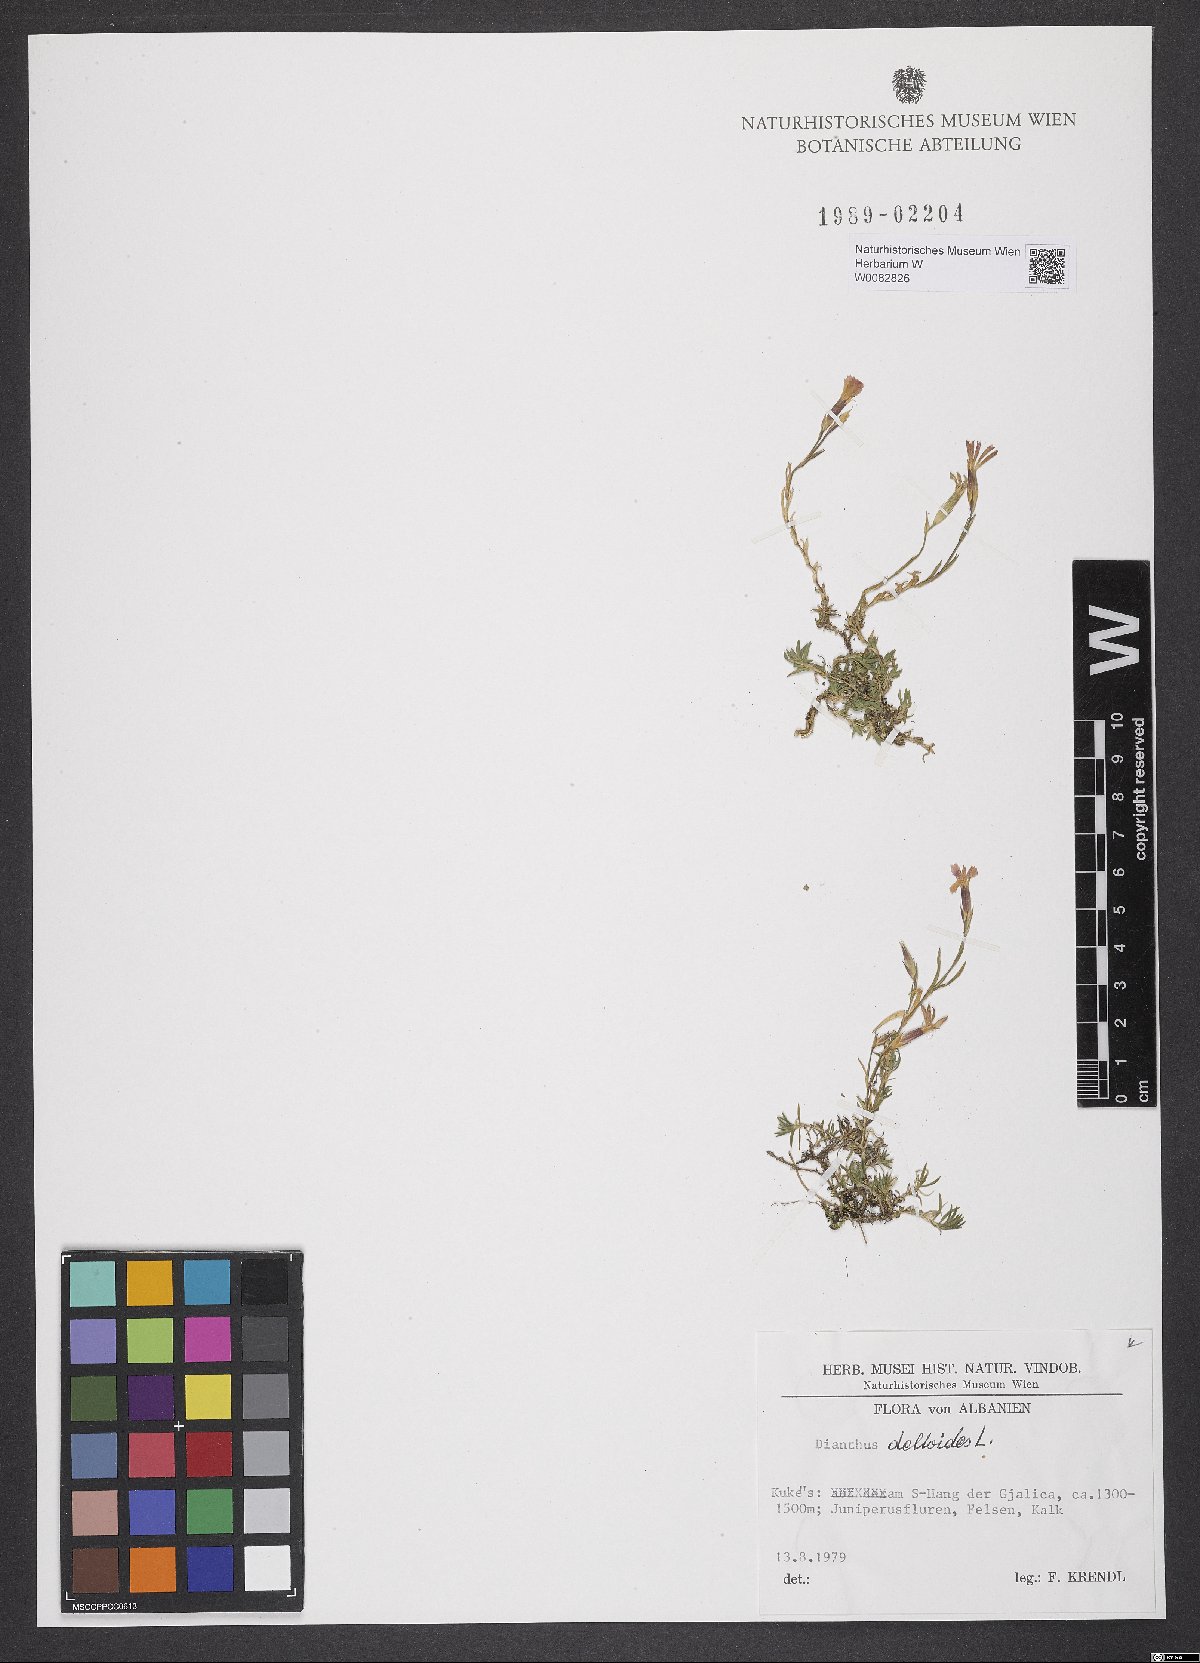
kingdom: Plantae
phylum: Tracheophyta
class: Magnoliopsida
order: Caryophyllales
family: Caryophyllaceae
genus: Dianthus
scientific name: Dianthus deltoides
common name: Maiden pink
